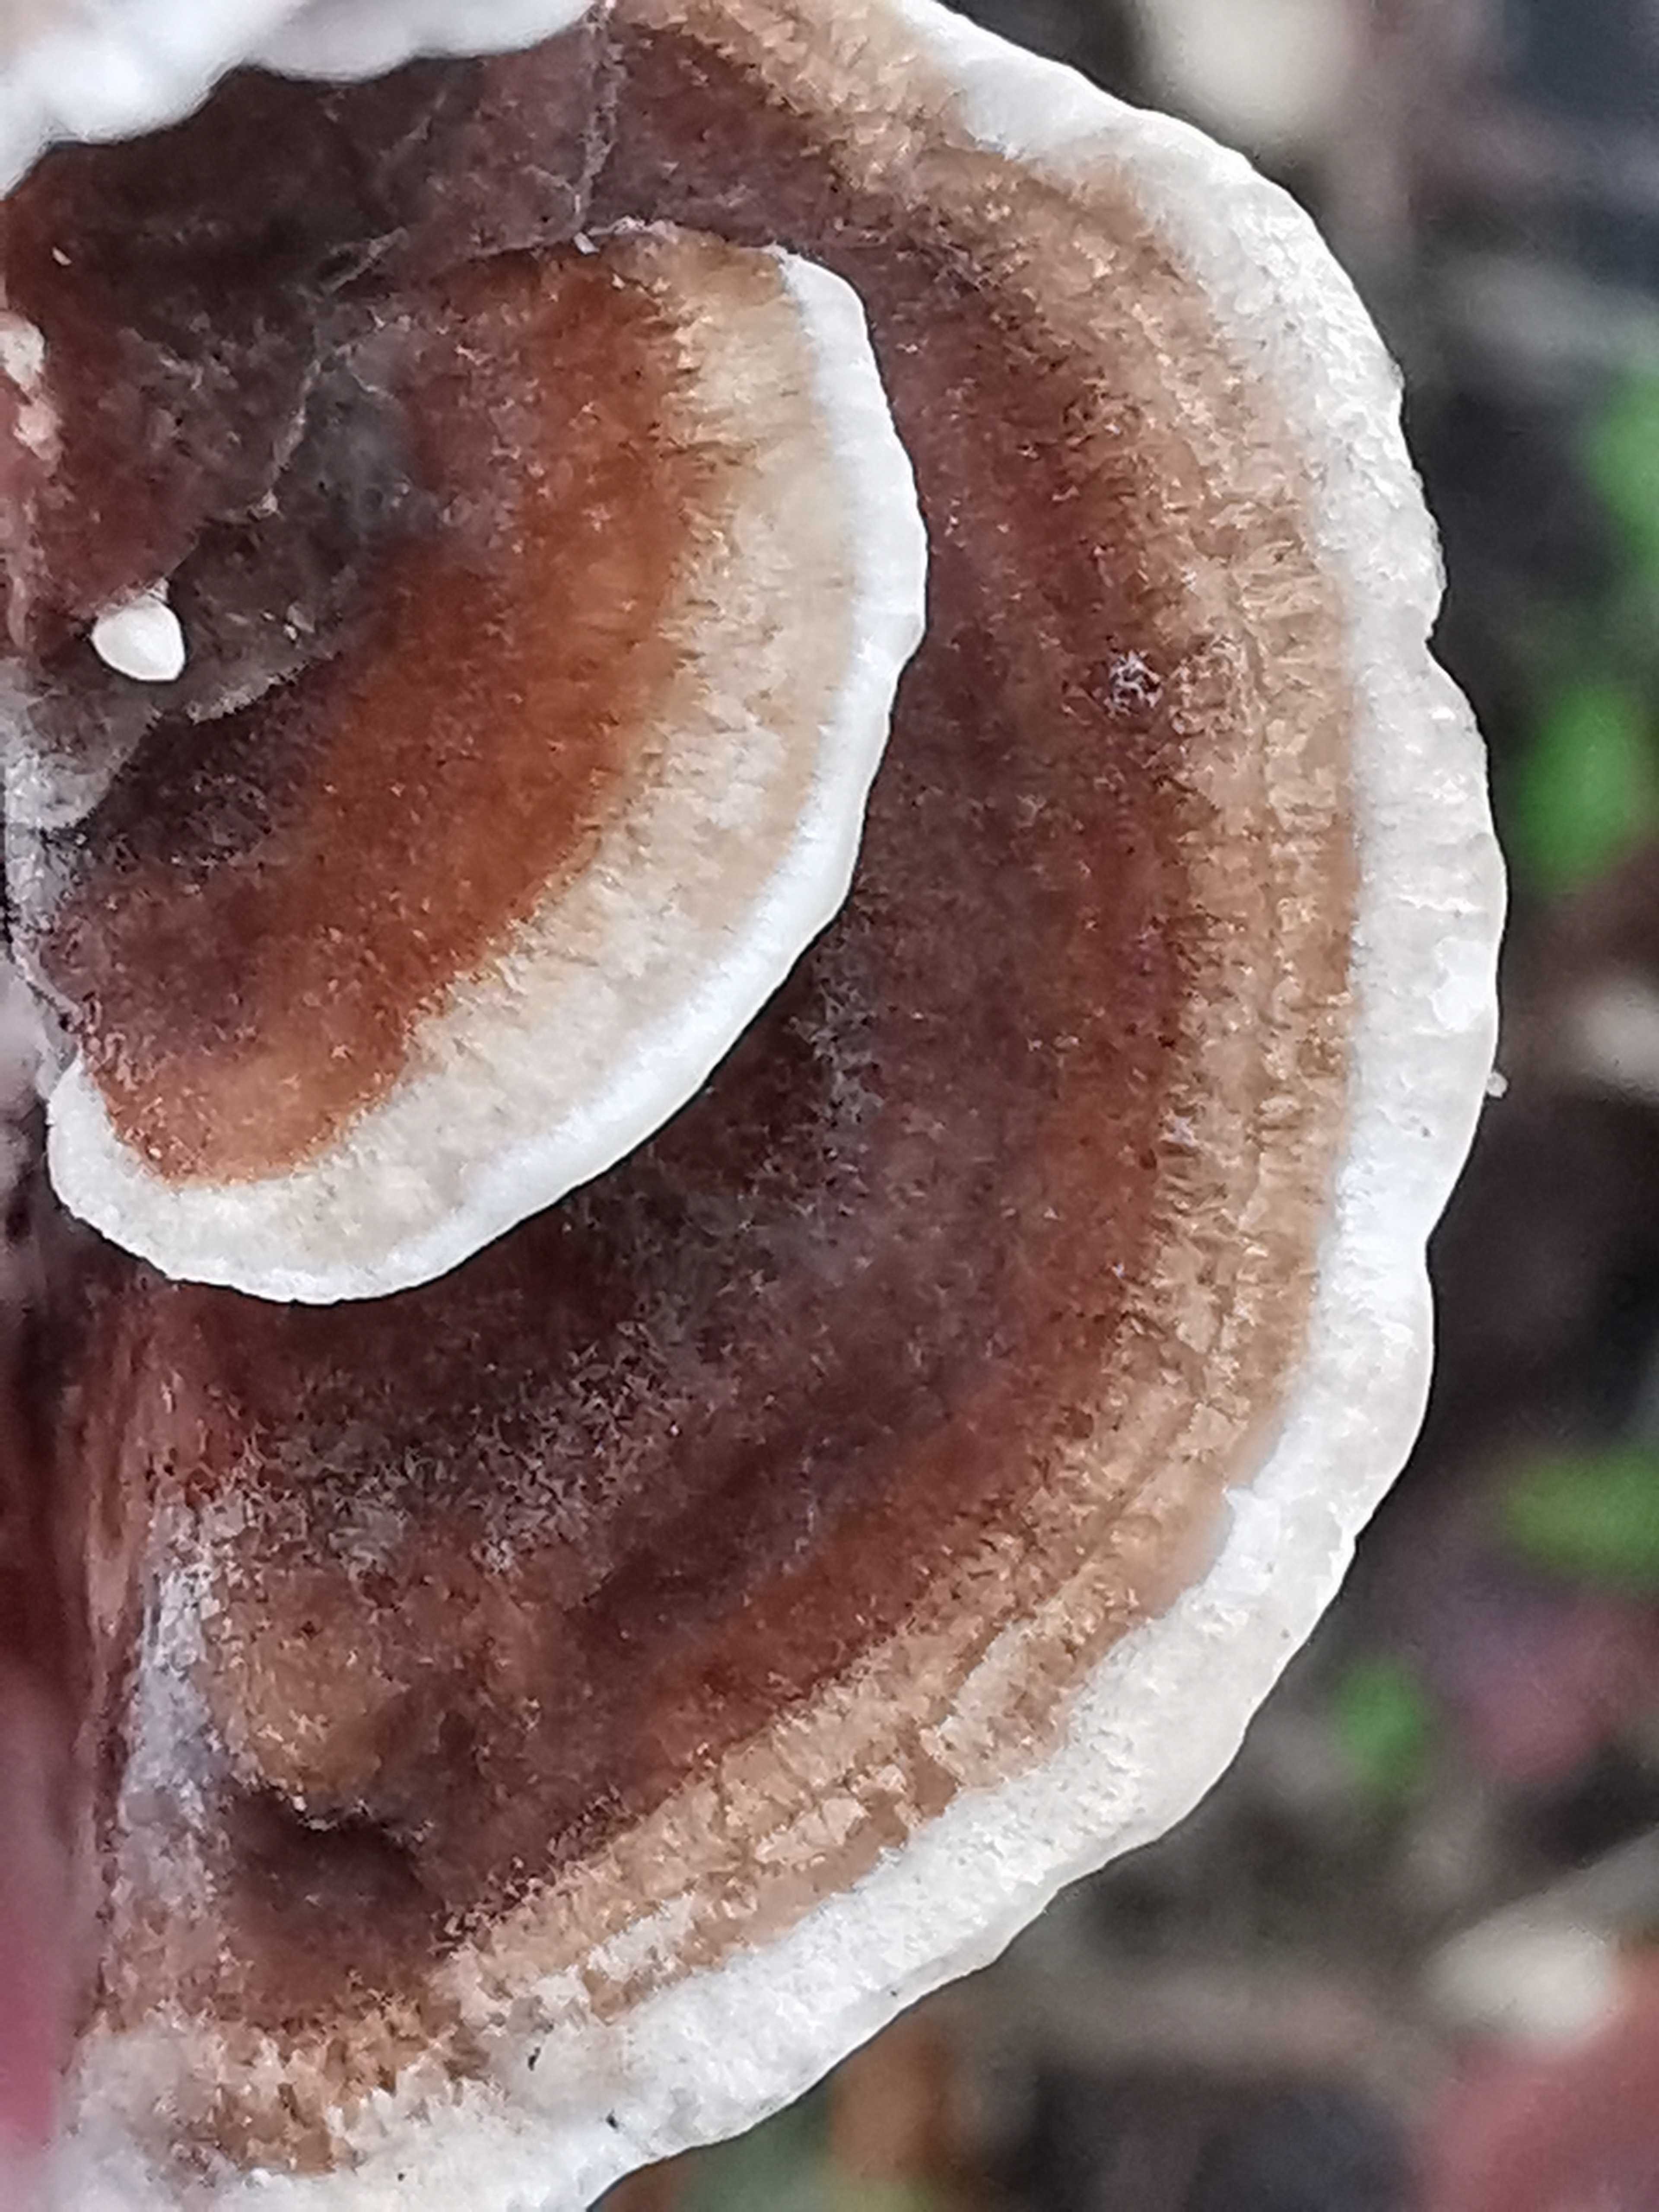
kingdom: Fungi
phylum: Basidiomycota
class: Agaricomycetes
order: Polyporales
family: Polyporaceae
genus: Trametes
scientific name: Trametes versicolor
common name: broget læderporesvamp
